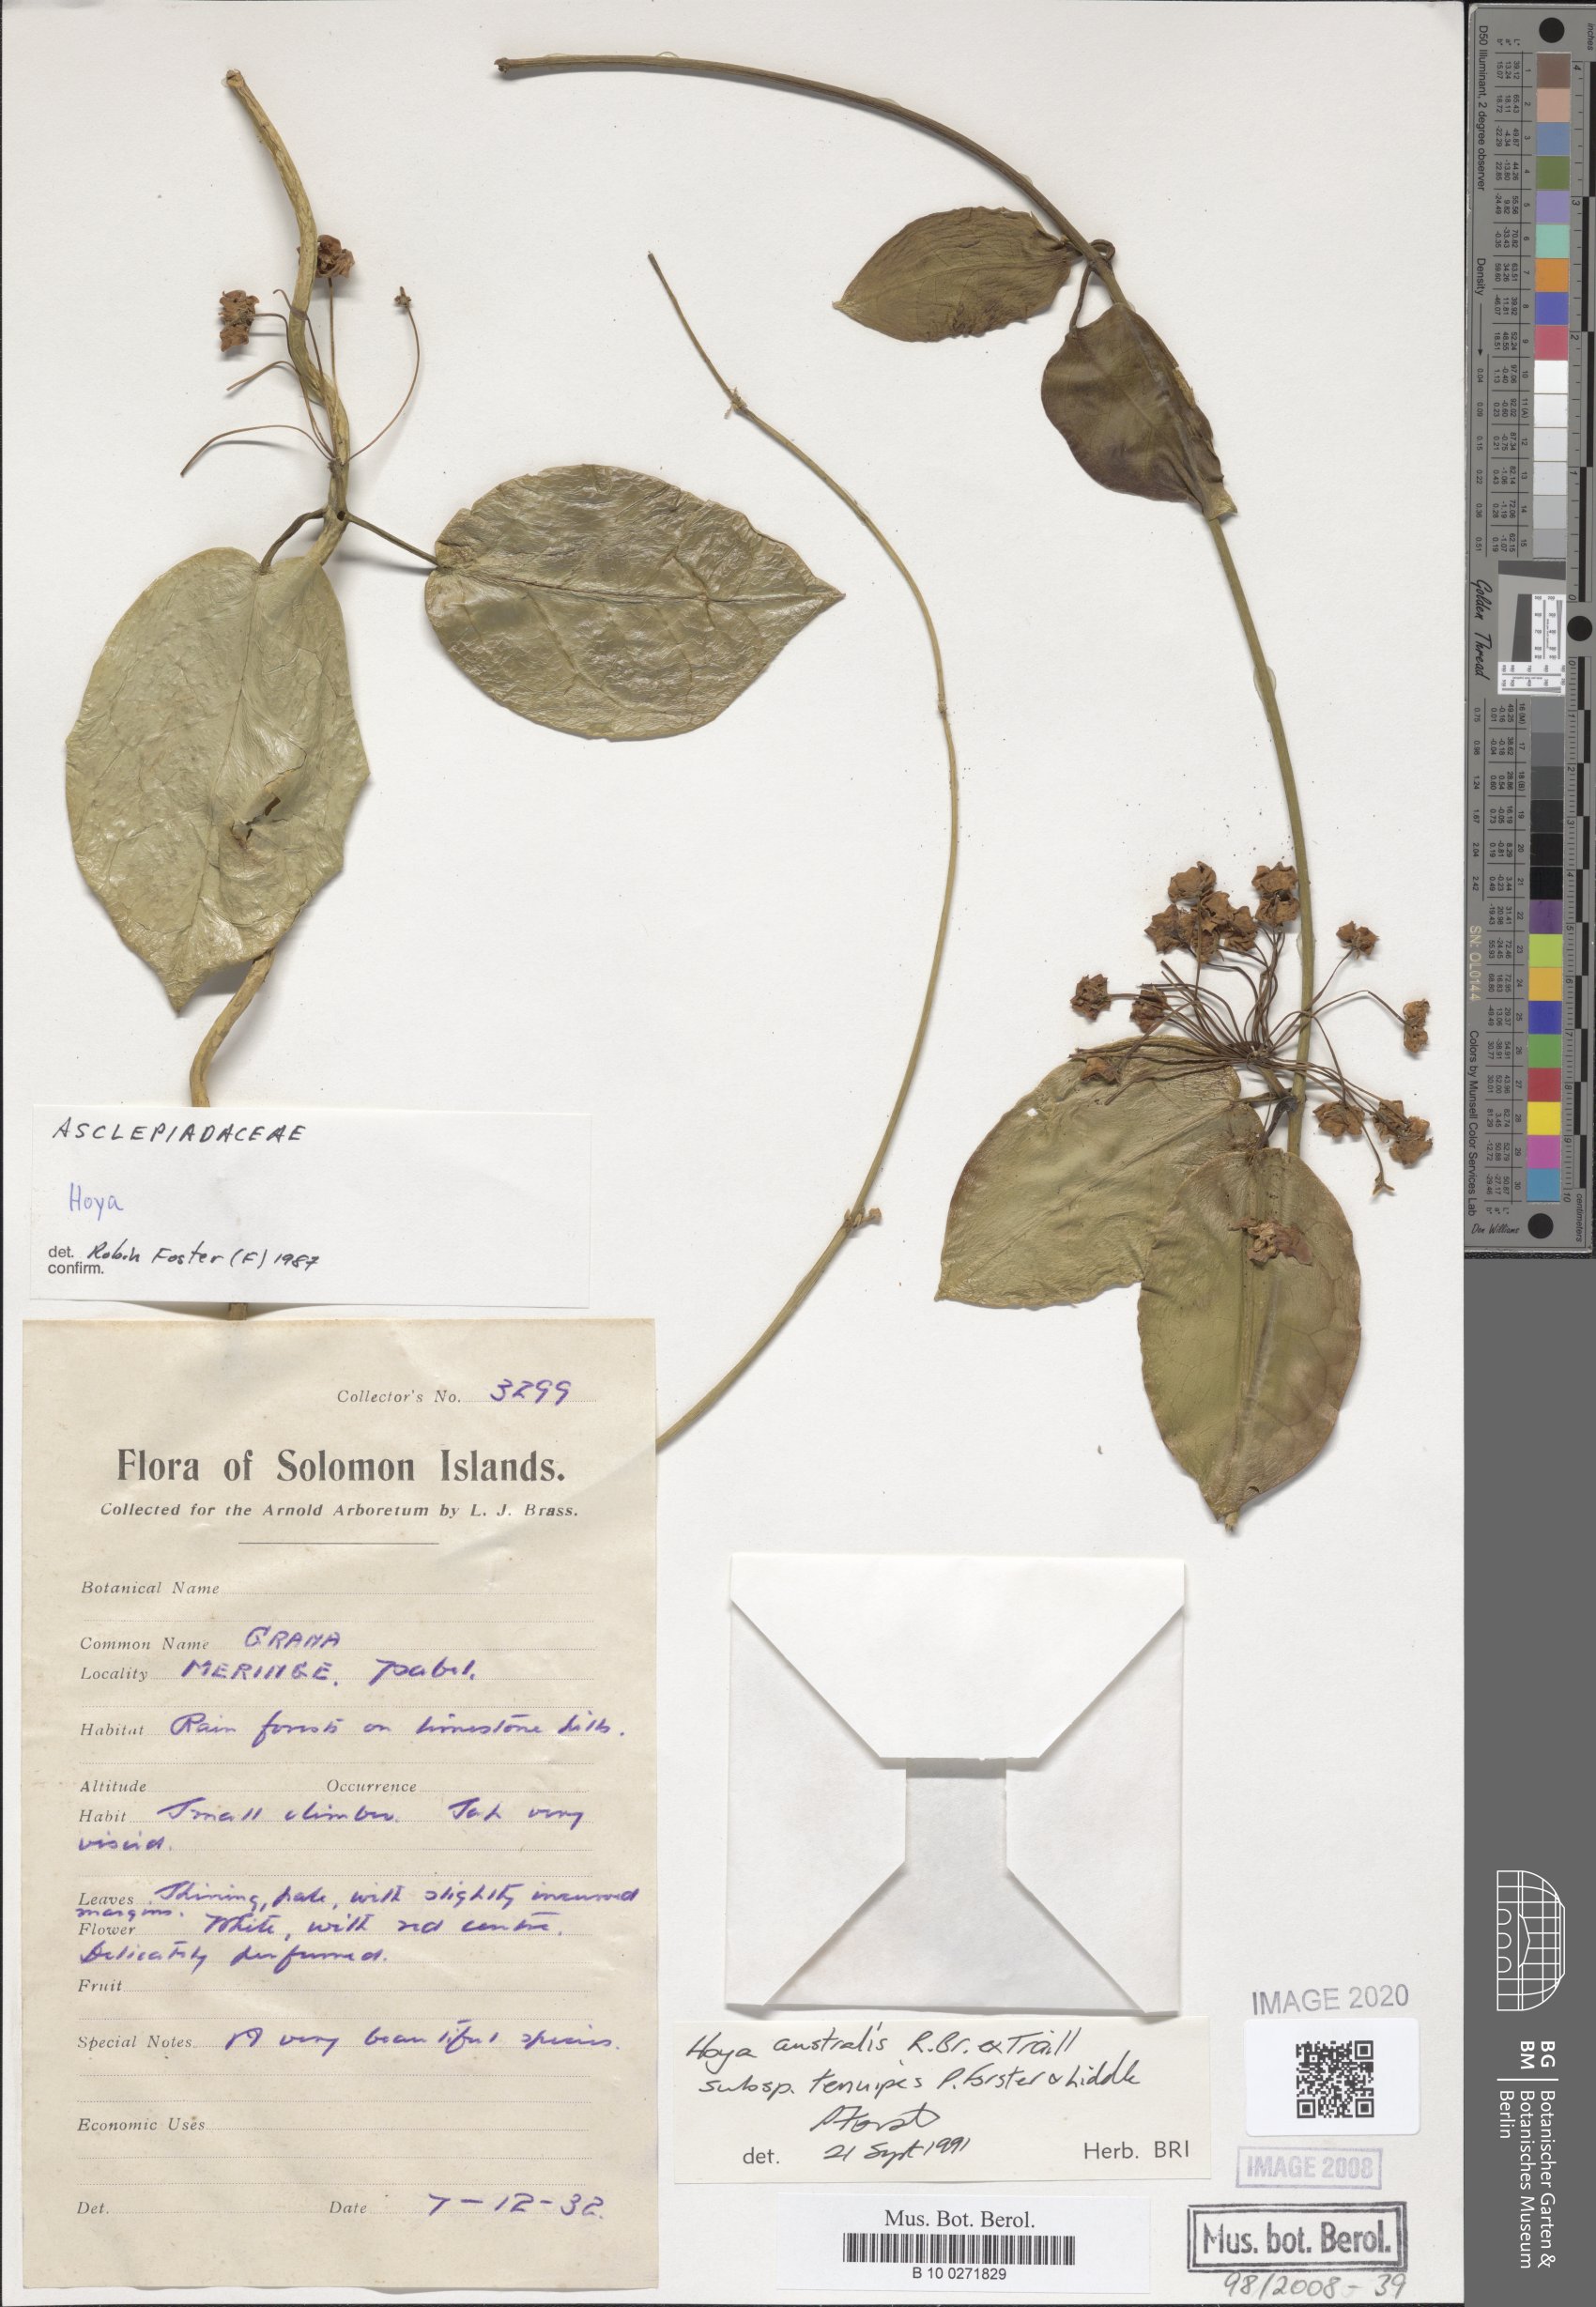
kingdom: Plantae
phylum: Tracheophyta
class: Magnoliopsida
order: Gentianales
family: Apocynaceae
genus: Hoya
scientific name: Hoya australis
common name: Wax flower
